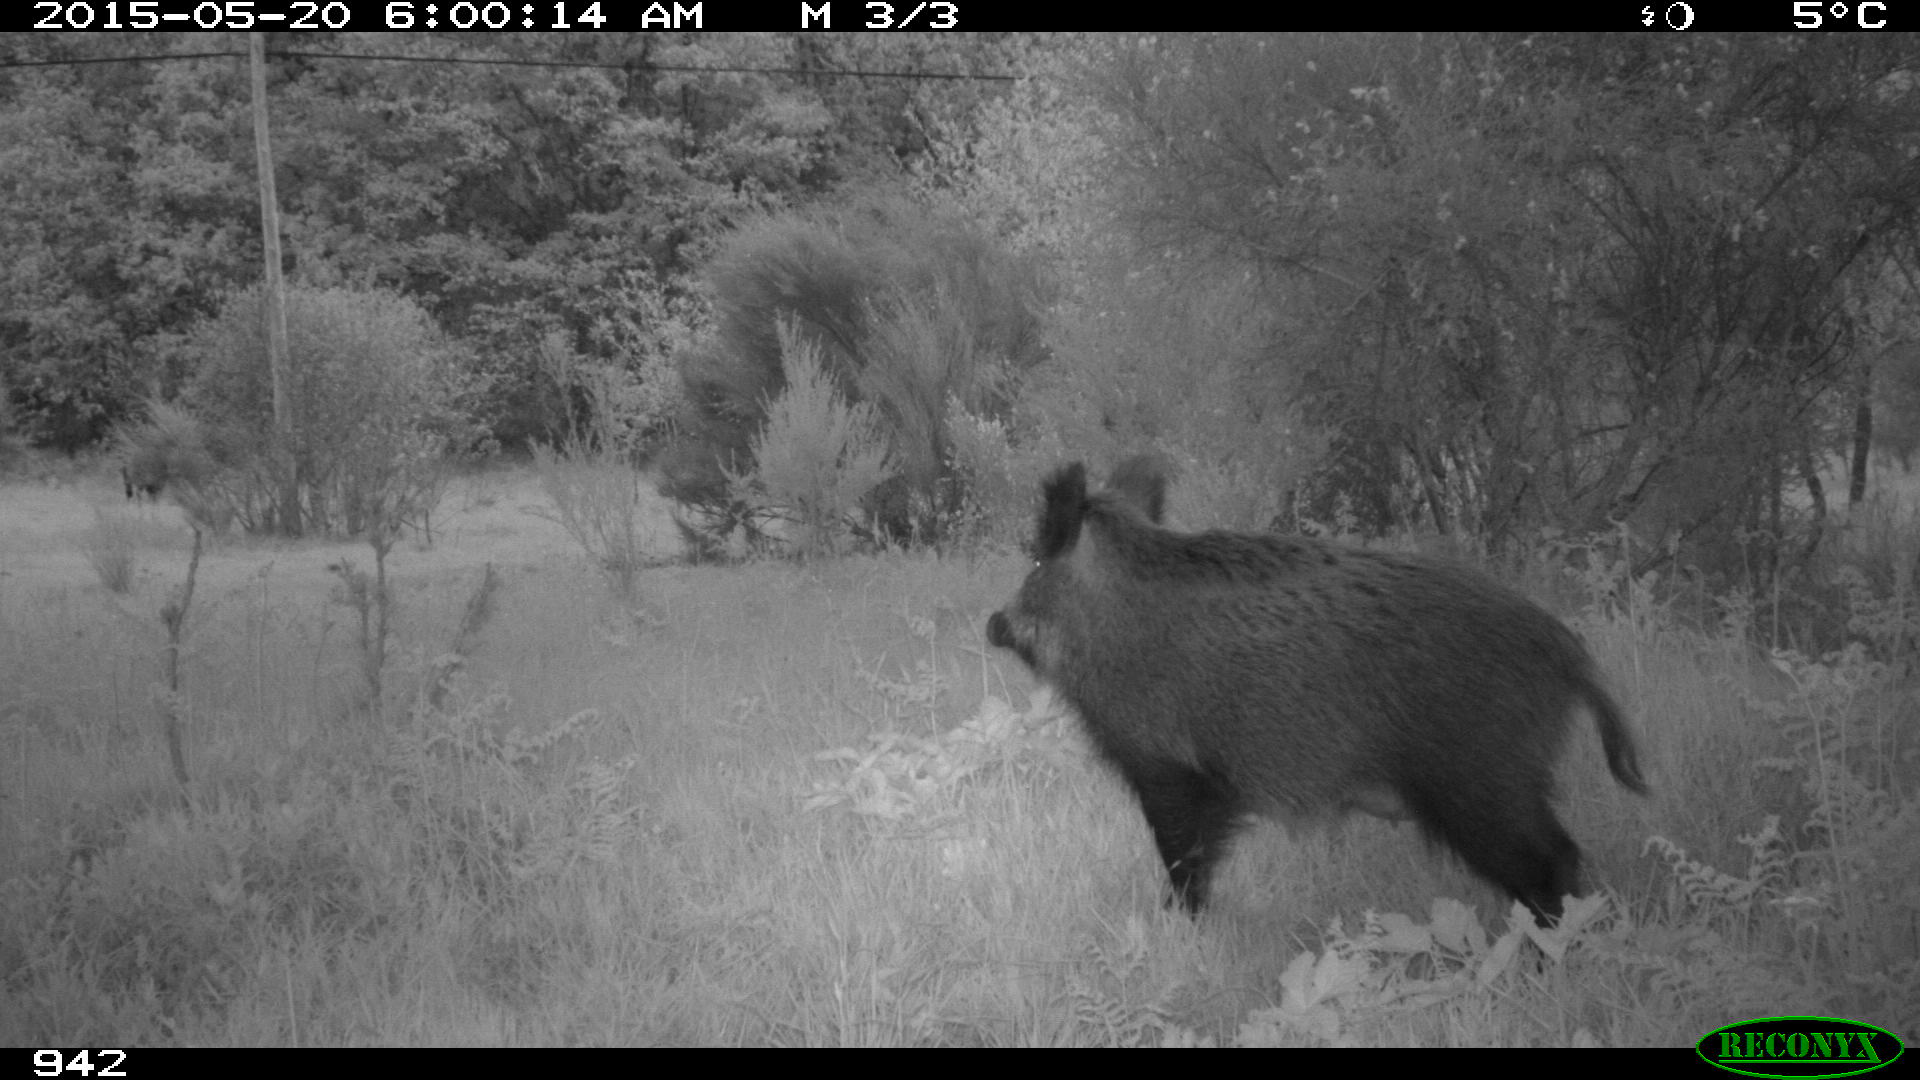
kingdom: Animalia
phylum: Chordata
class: Mammalia
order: Artiodactyla
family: Suidae
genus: Sus
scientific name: Sus scrofa
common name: Wild boar
